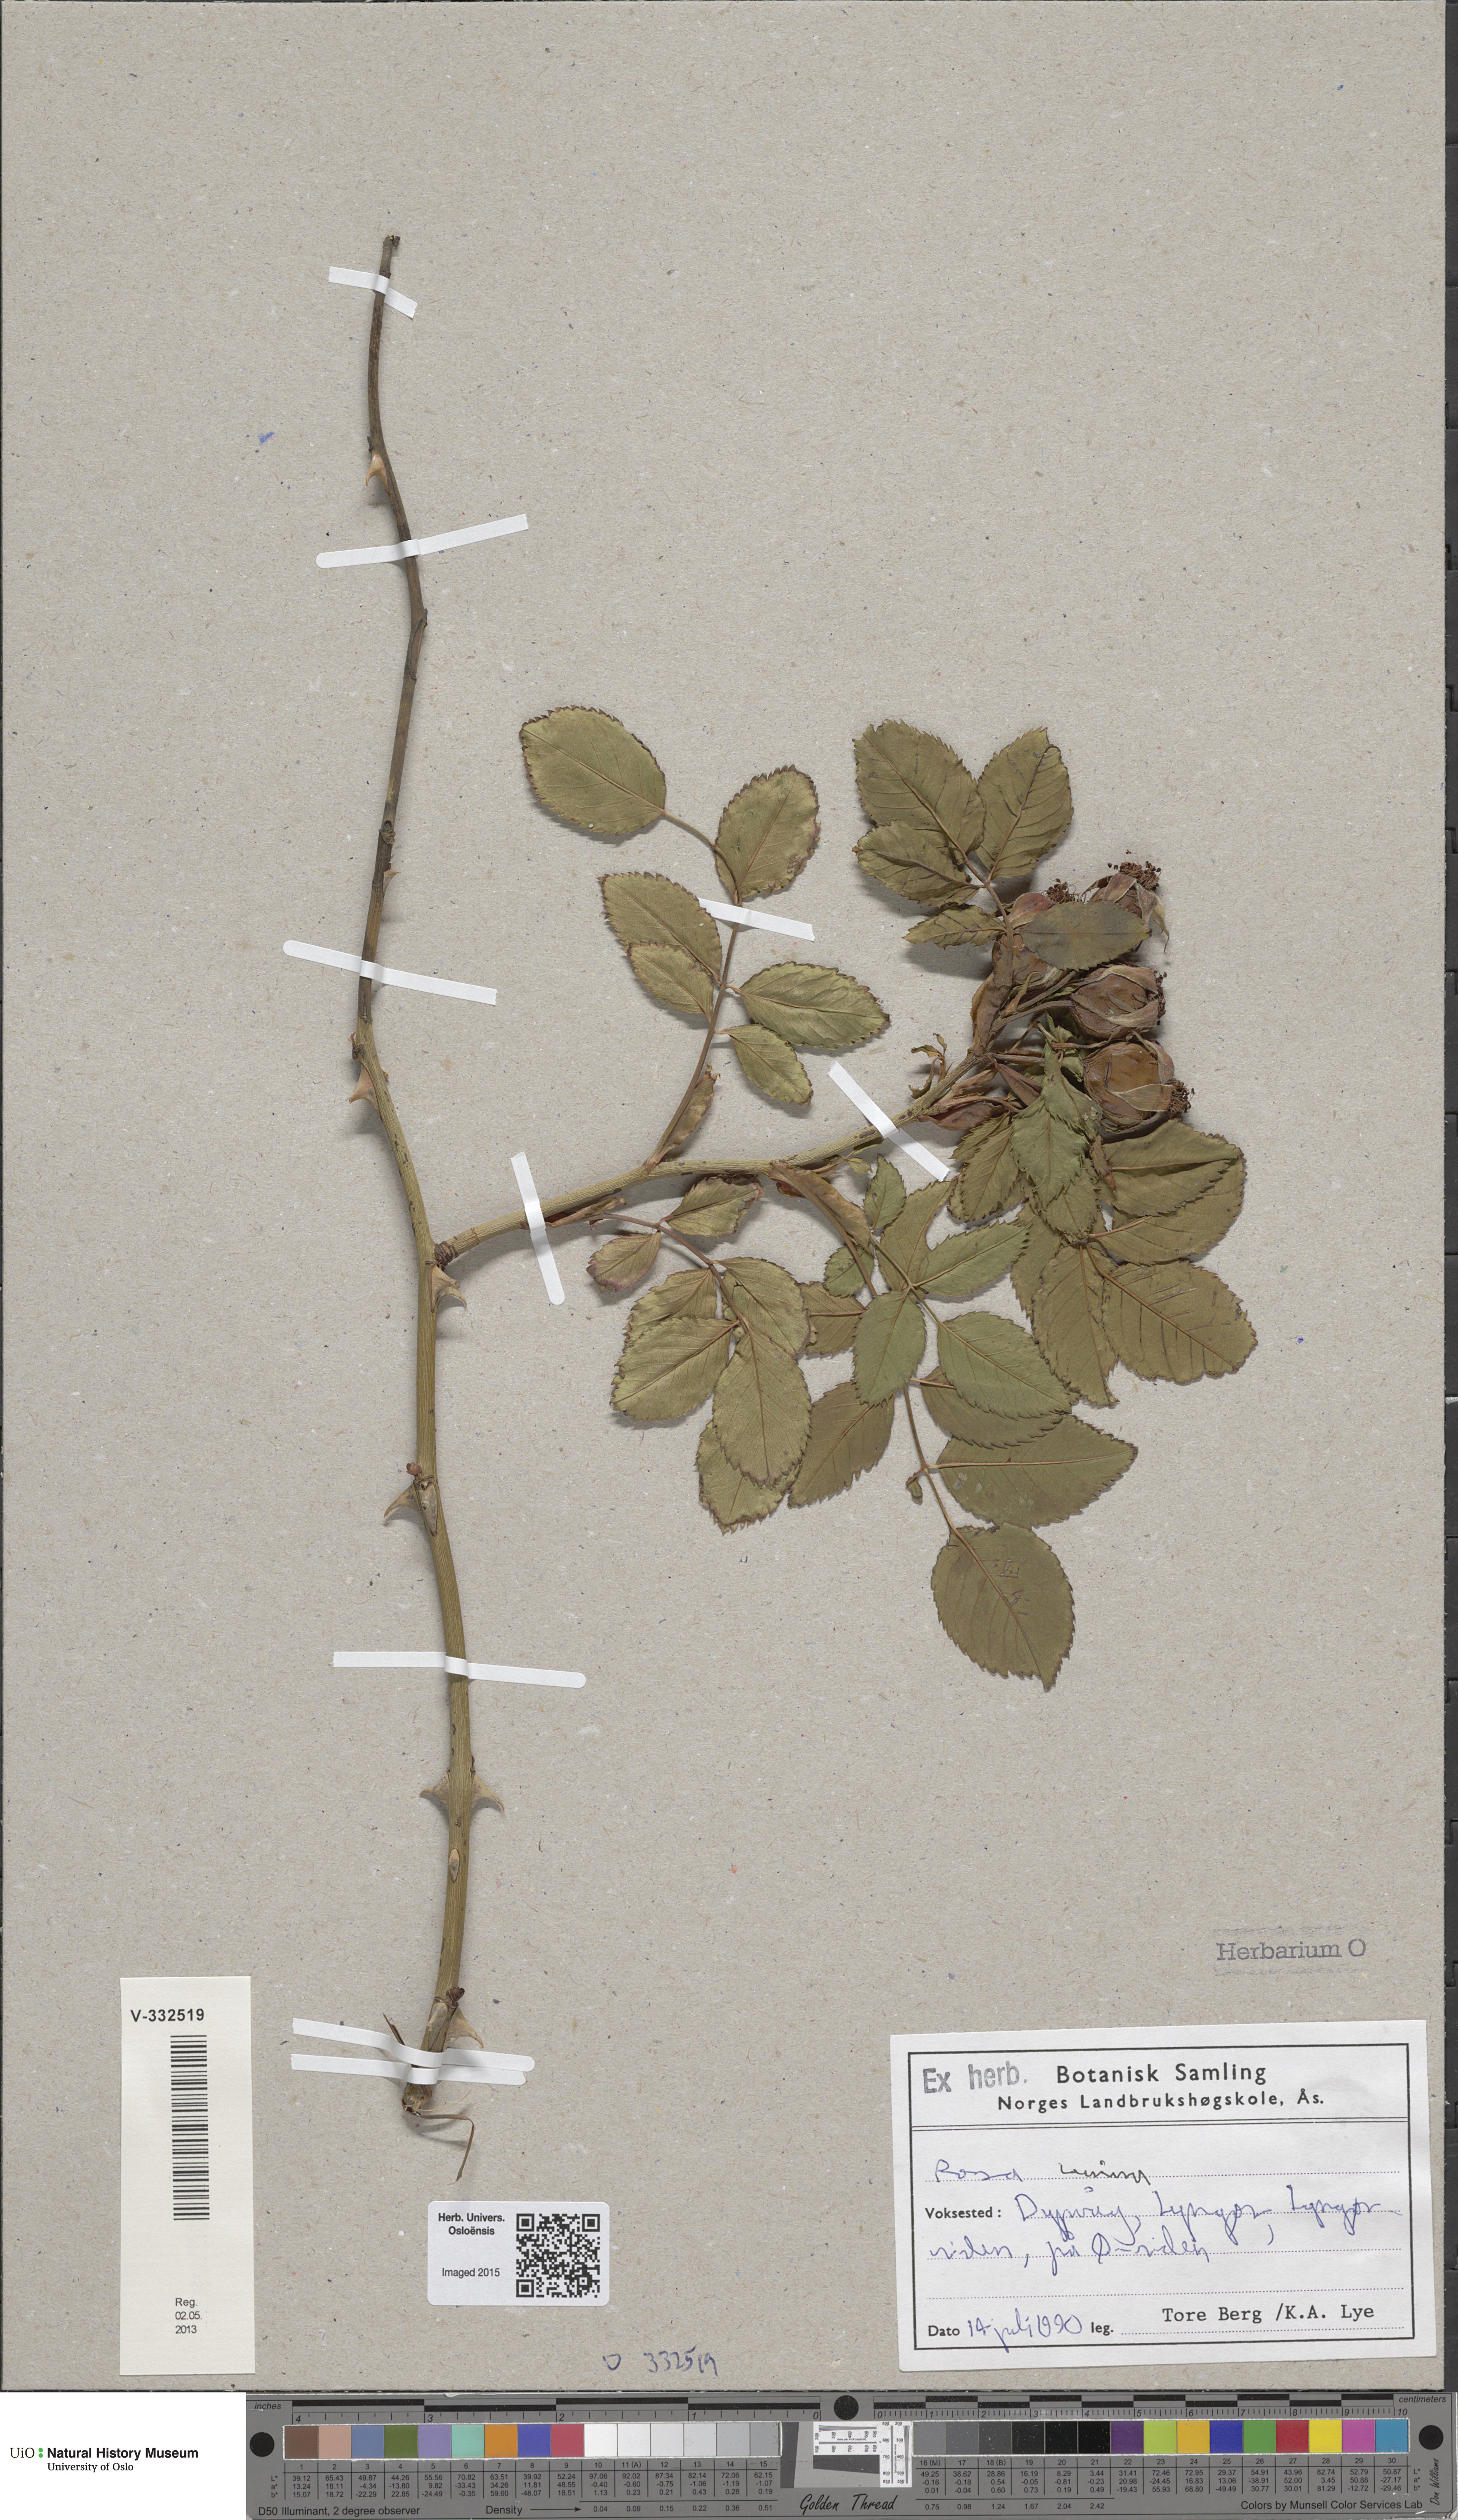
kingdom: Plantae
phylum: Tracheophyta
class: Magnoliopsida
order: Rosales
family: Rosaceae
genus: Rosa
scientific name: Rosa canina
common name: Dog rose
